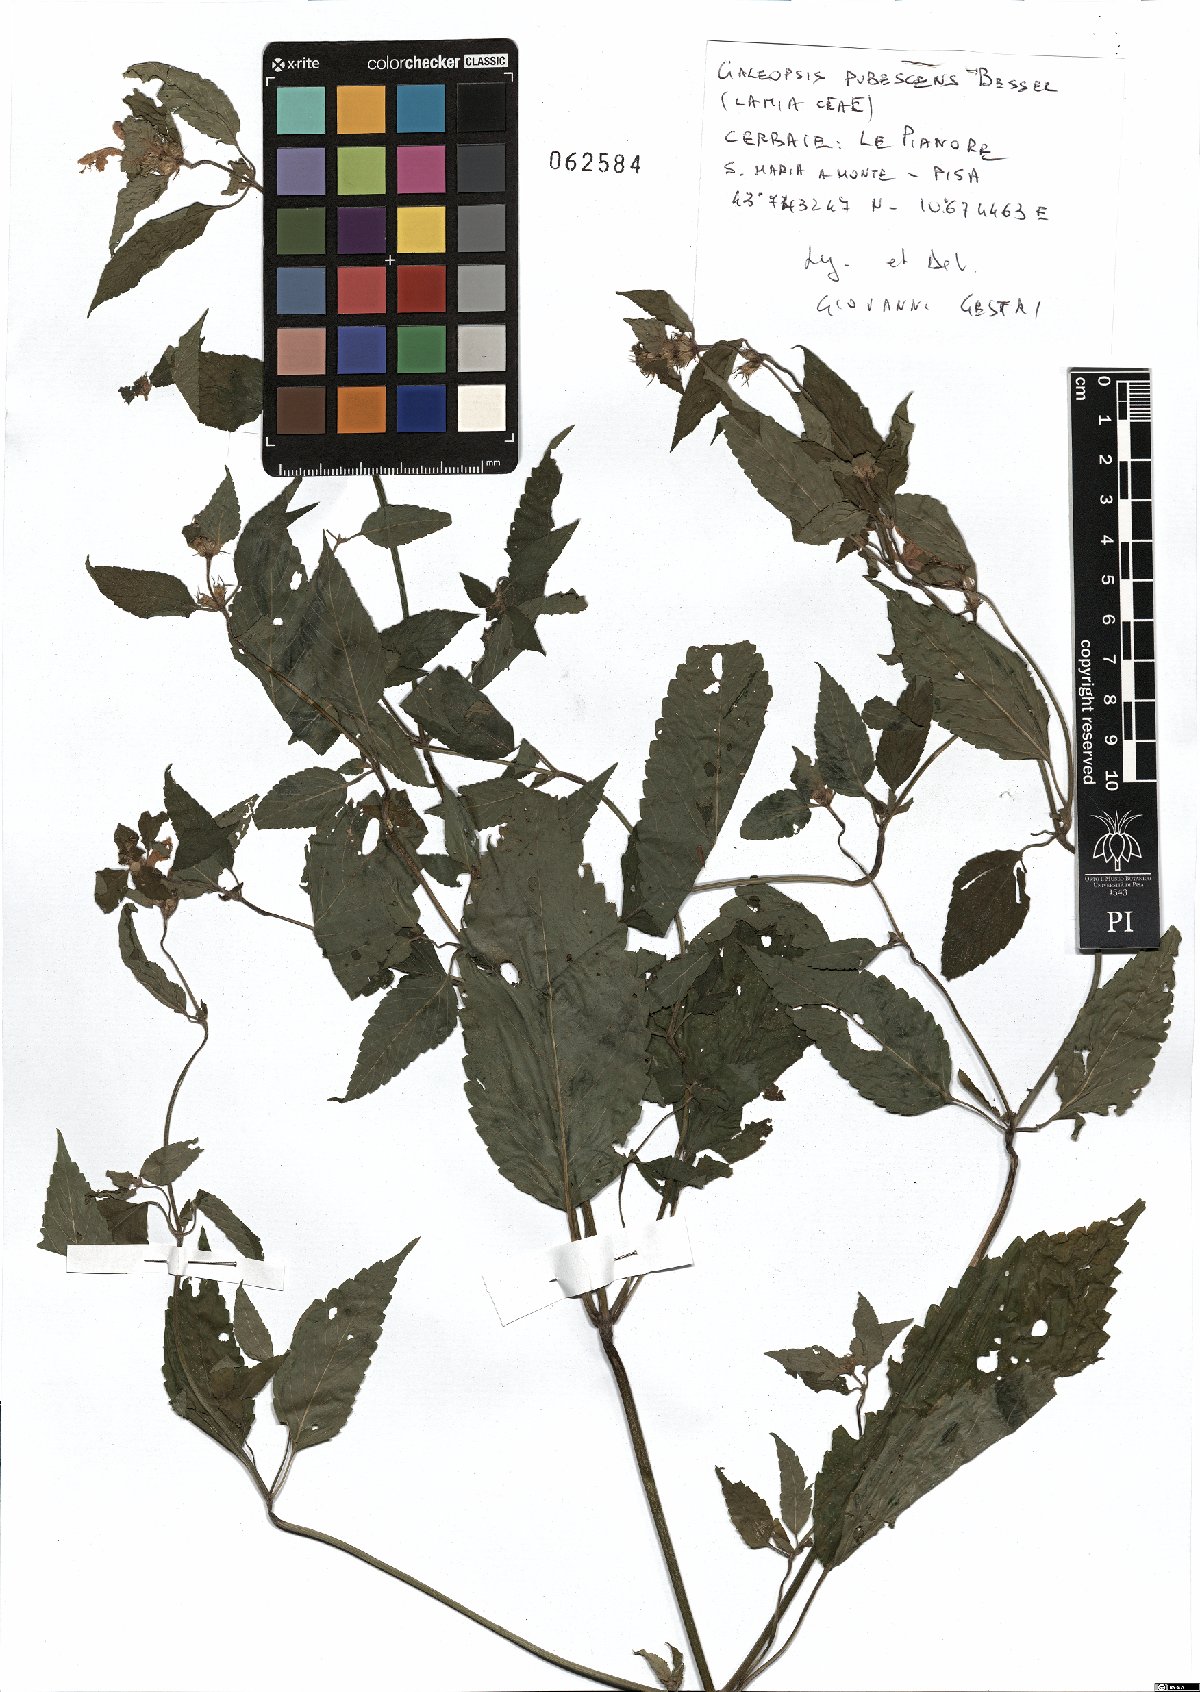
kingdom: Plantae
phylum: Tracheophyta
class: Magnoliopsida
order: Lamiales
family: Lamiaceae
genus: Galeopsis
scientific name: Galeopsis pubescens
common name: Downy hemp-nettle
